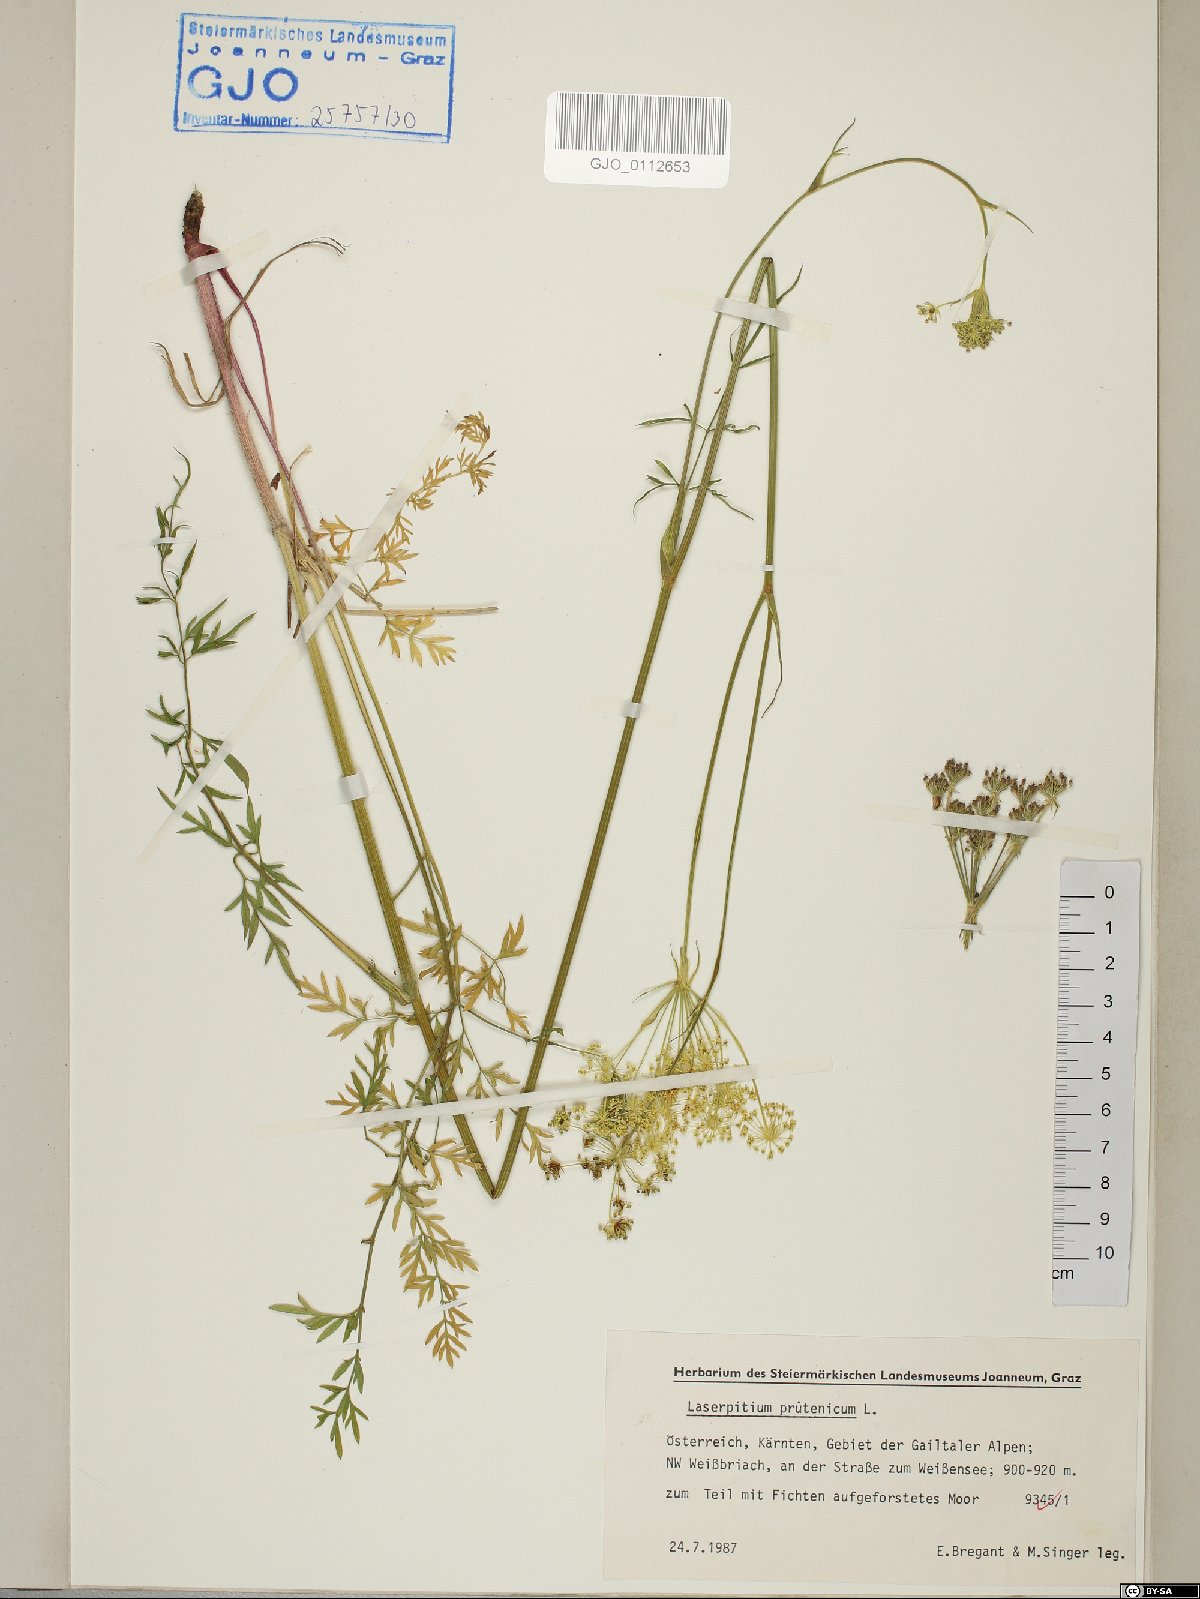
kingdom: Plantae
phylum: Tracheophyta
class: Magnoliopsida
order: Apiales
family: Apiaceae
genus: Silphiodaucus
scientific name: Silphiodaucus prutenicus
